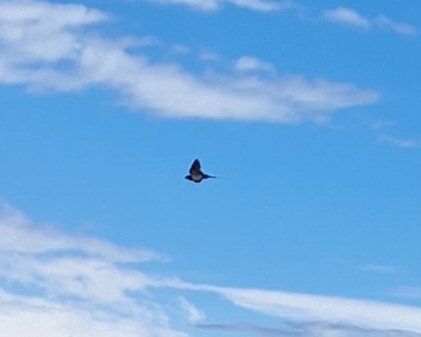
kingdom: Animalia
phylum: Chordata
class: Aves
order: Passeriformes
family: Hirundinidae
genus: Hirundo
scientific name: Hirundo rustica
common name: Landsvale
